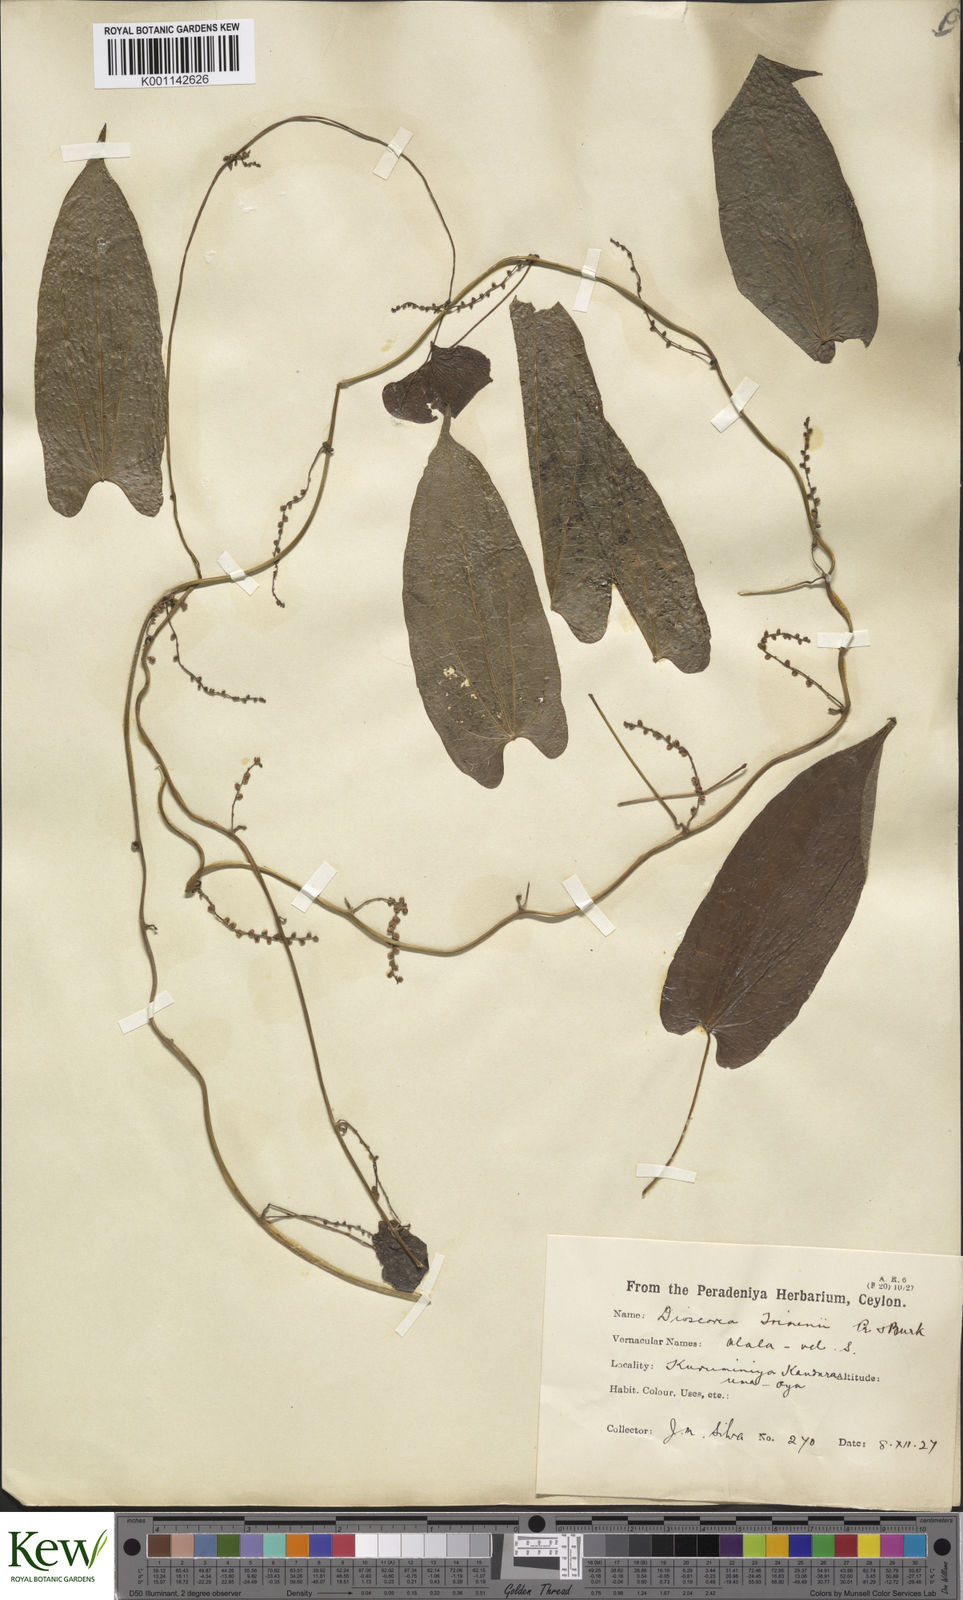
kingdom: Plantae
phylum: Tracheophyta
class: Liliopsida
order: Dioscoreales
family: Dioscoreaceae
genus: Dioscorea
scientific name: Dioscorea trimenii
